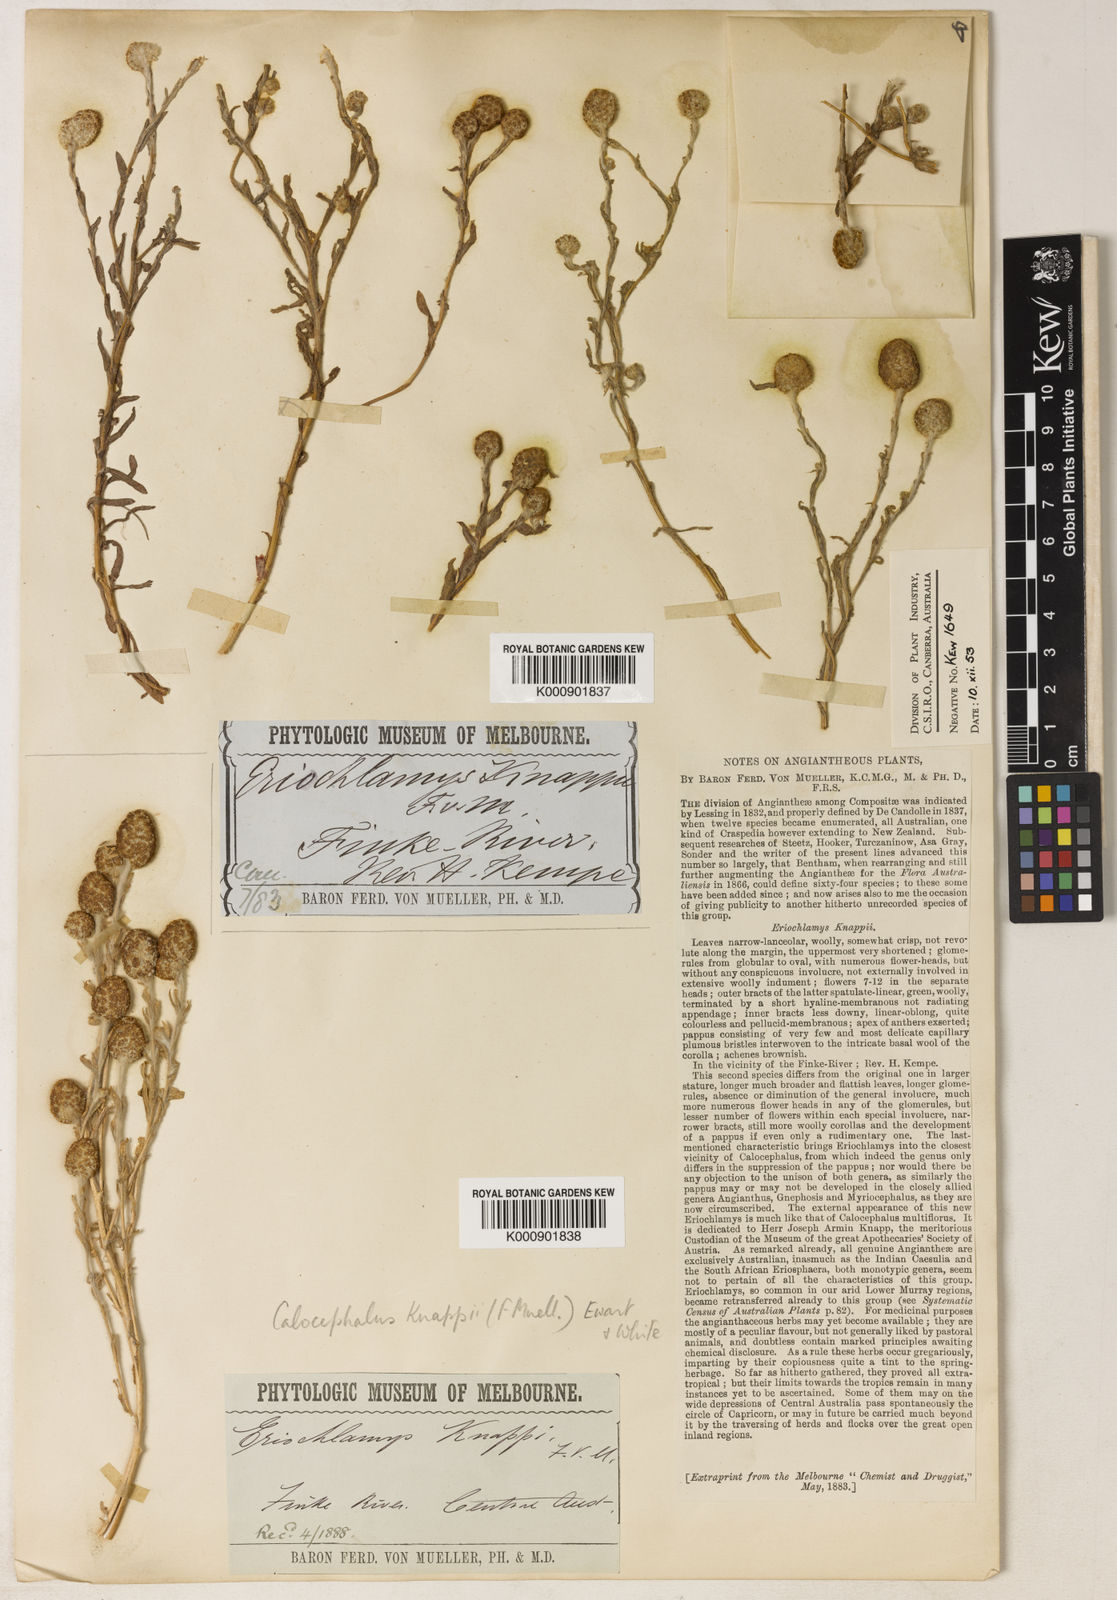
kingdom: Plantae
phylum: Tracheophyta
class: Magnoliopsida
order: Asterales
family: Asteraceae
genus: Calocephalus
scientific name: Calocephalus knappii
